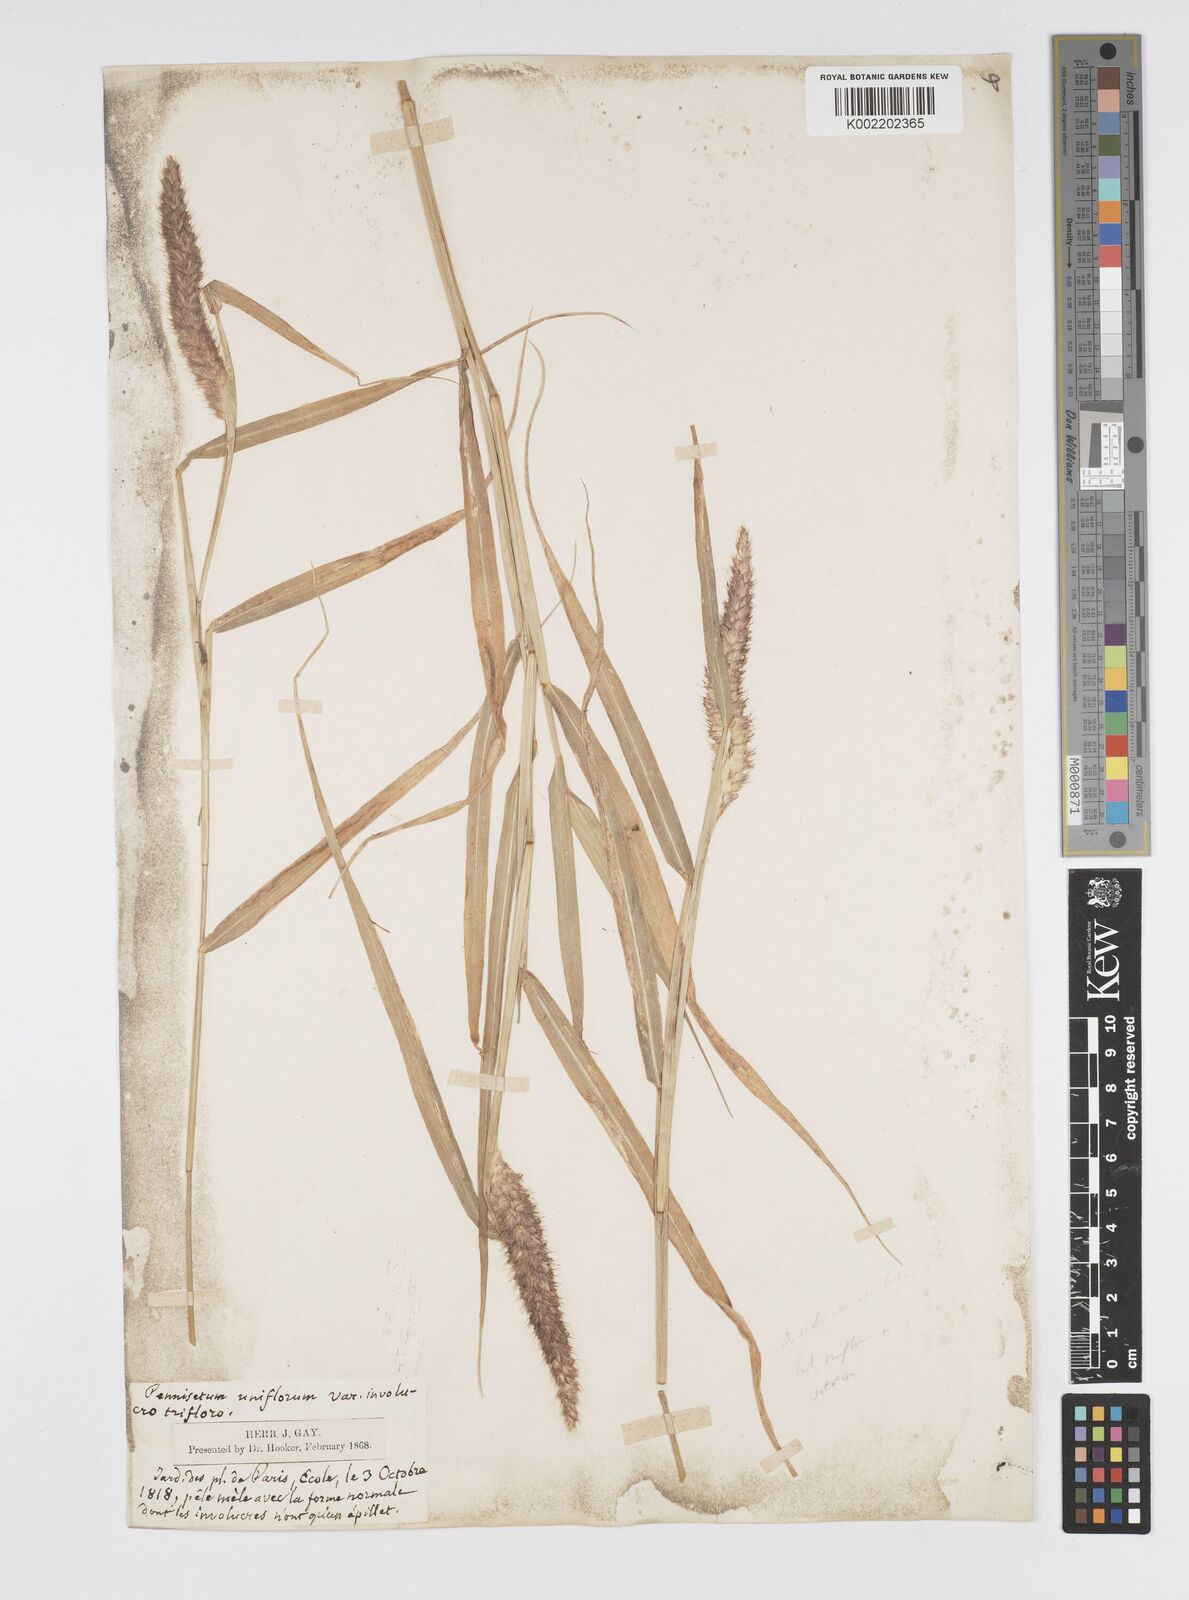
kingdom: Plantae
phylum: Tracheophyta
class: Liliopsida
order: Poales
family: Poaceae
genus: Cenchrus
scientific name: Cenchrus pedicellatus
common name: Hairy fountain grass
